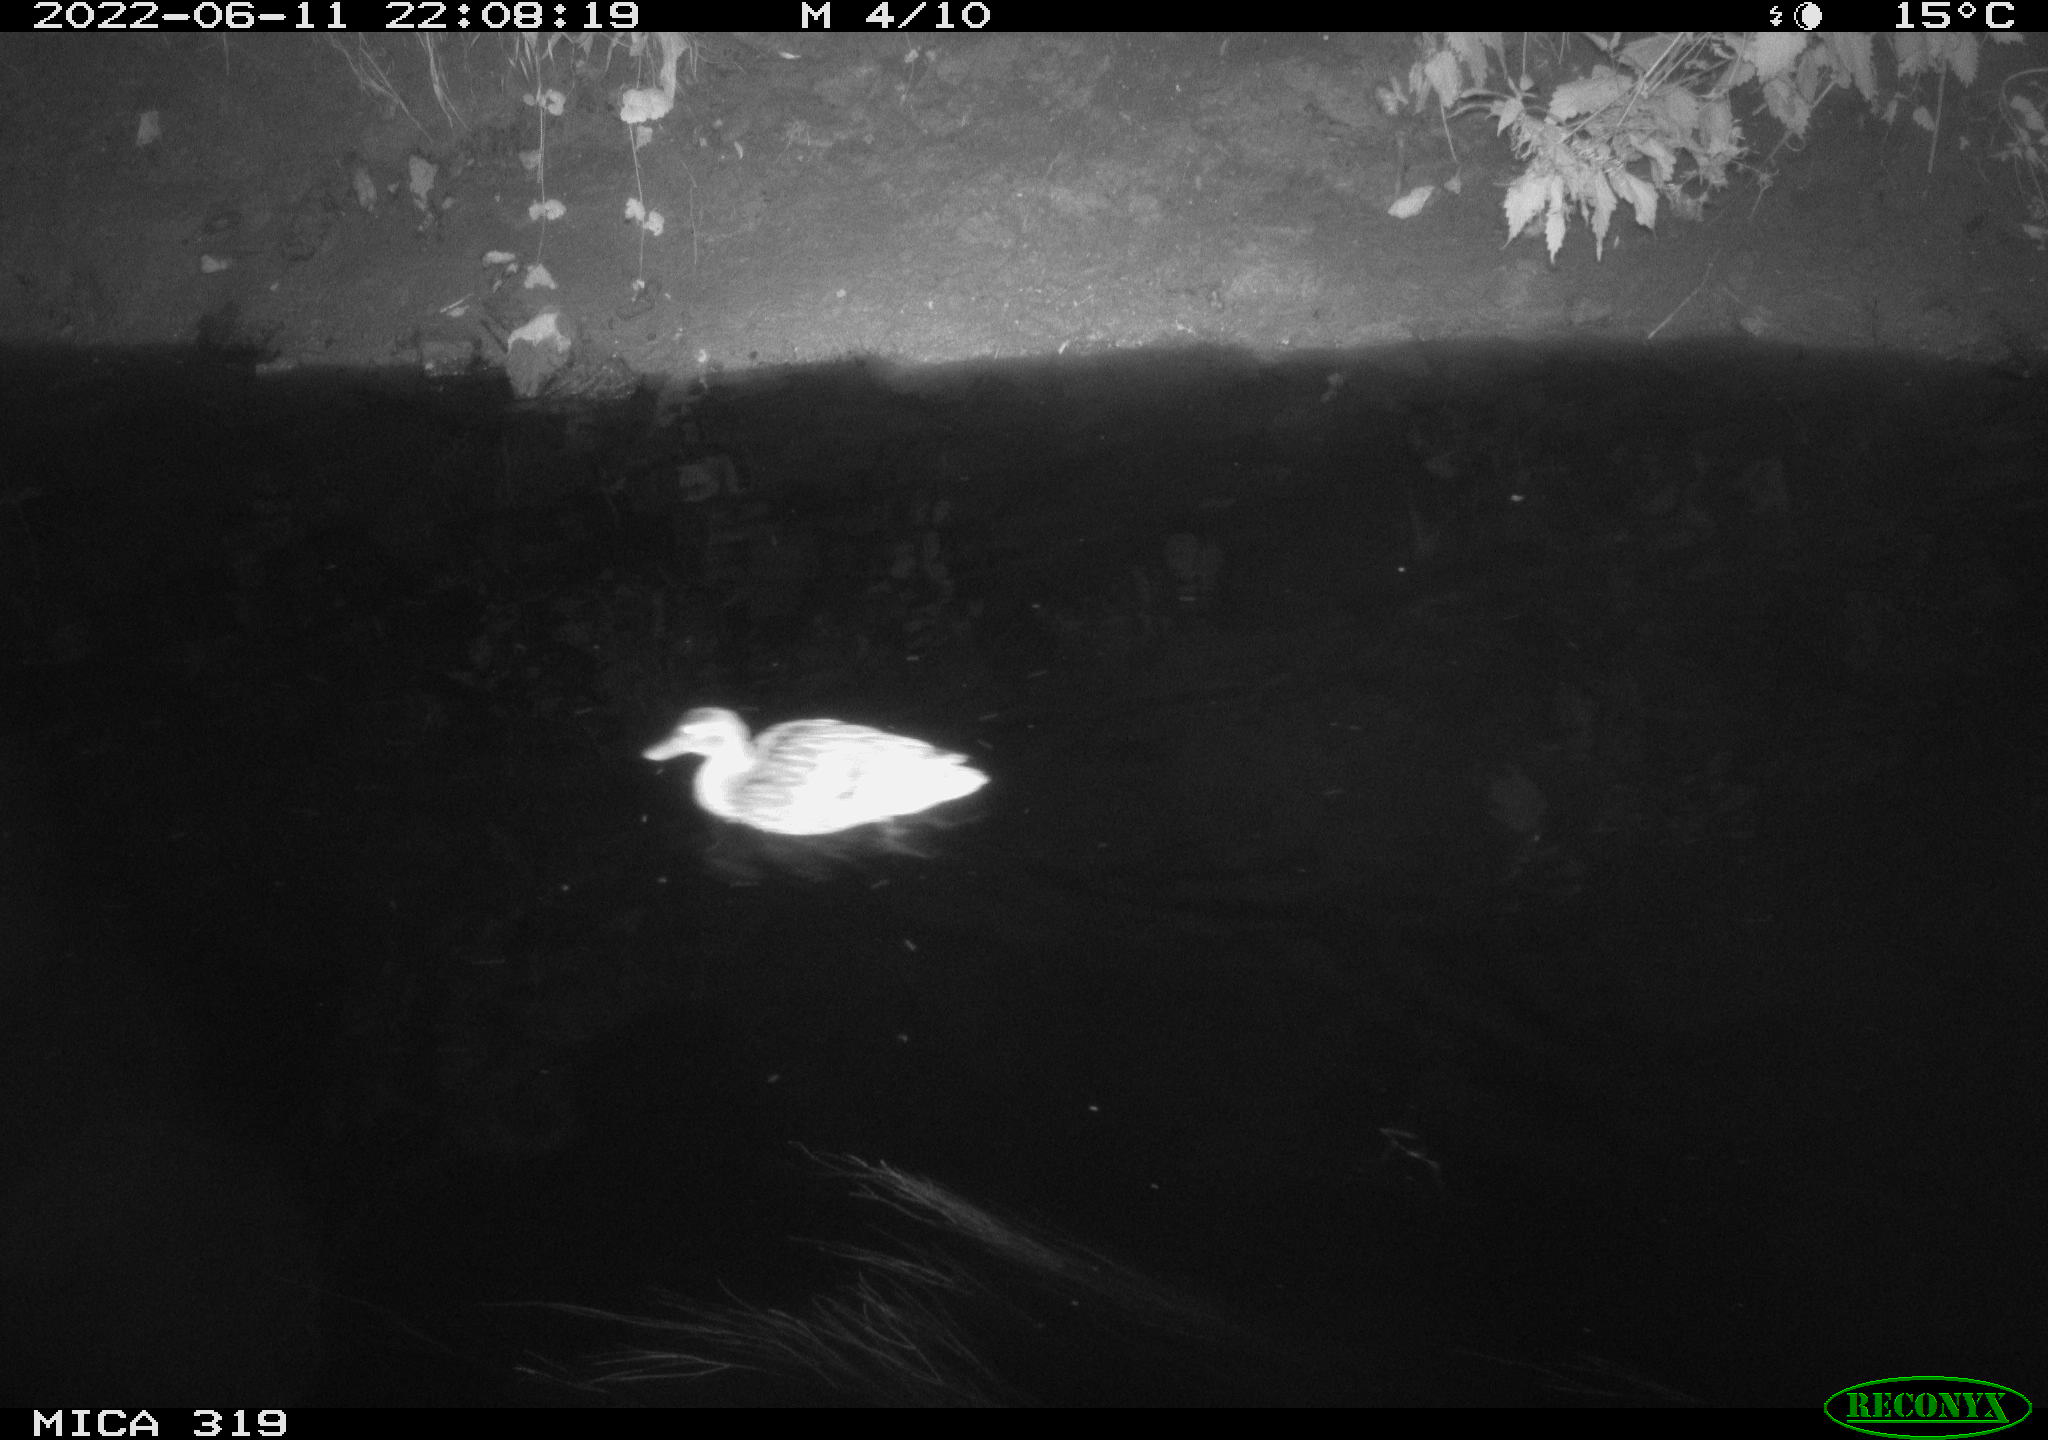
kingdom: Animalia
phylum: Chordata
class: Aves
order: Anseriformes
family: Anatidae
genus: Anas
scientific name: Anas
